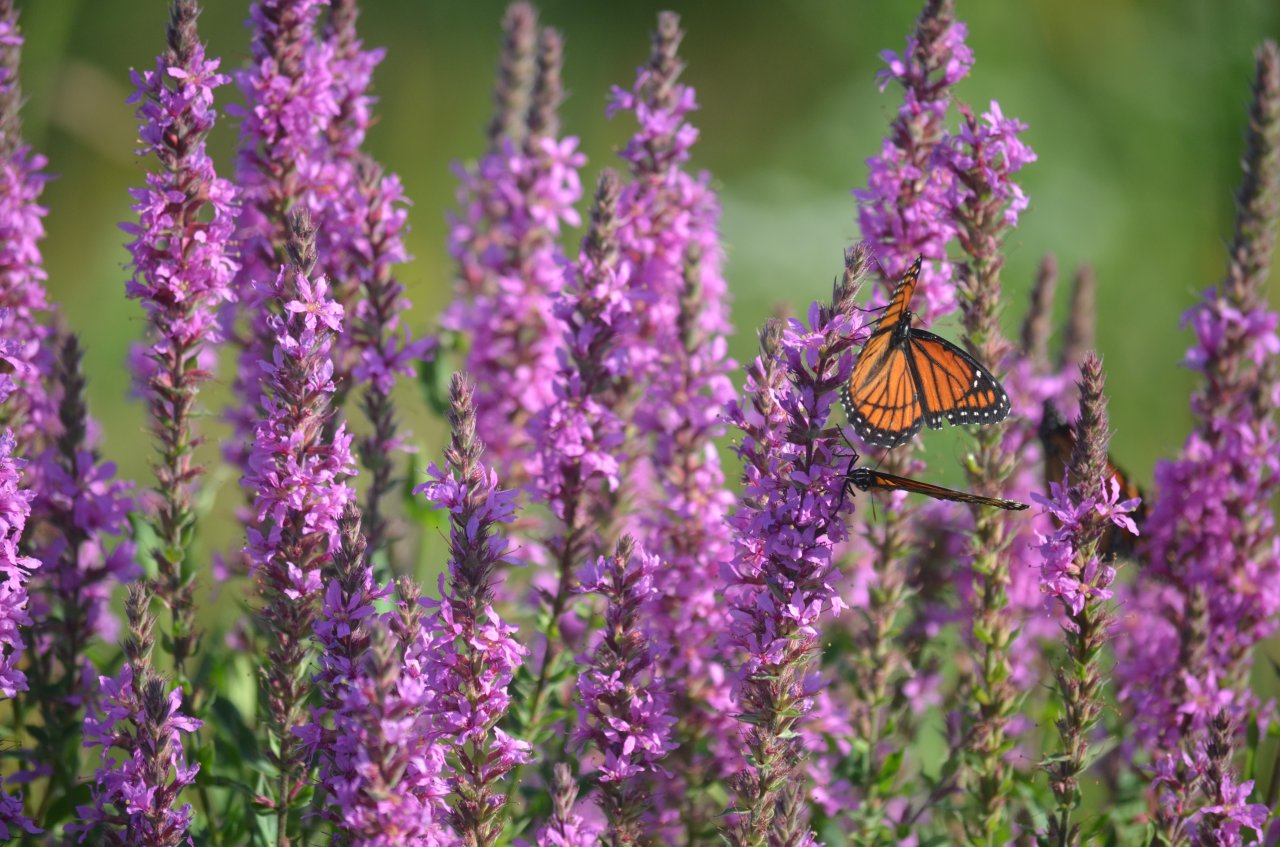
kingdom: Animalia
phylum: Arthropoda
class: Insecta
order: Lepidoptera
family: Nymphalidae
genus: Limenitis
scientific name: Limenitis archippus
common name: Viceroy
